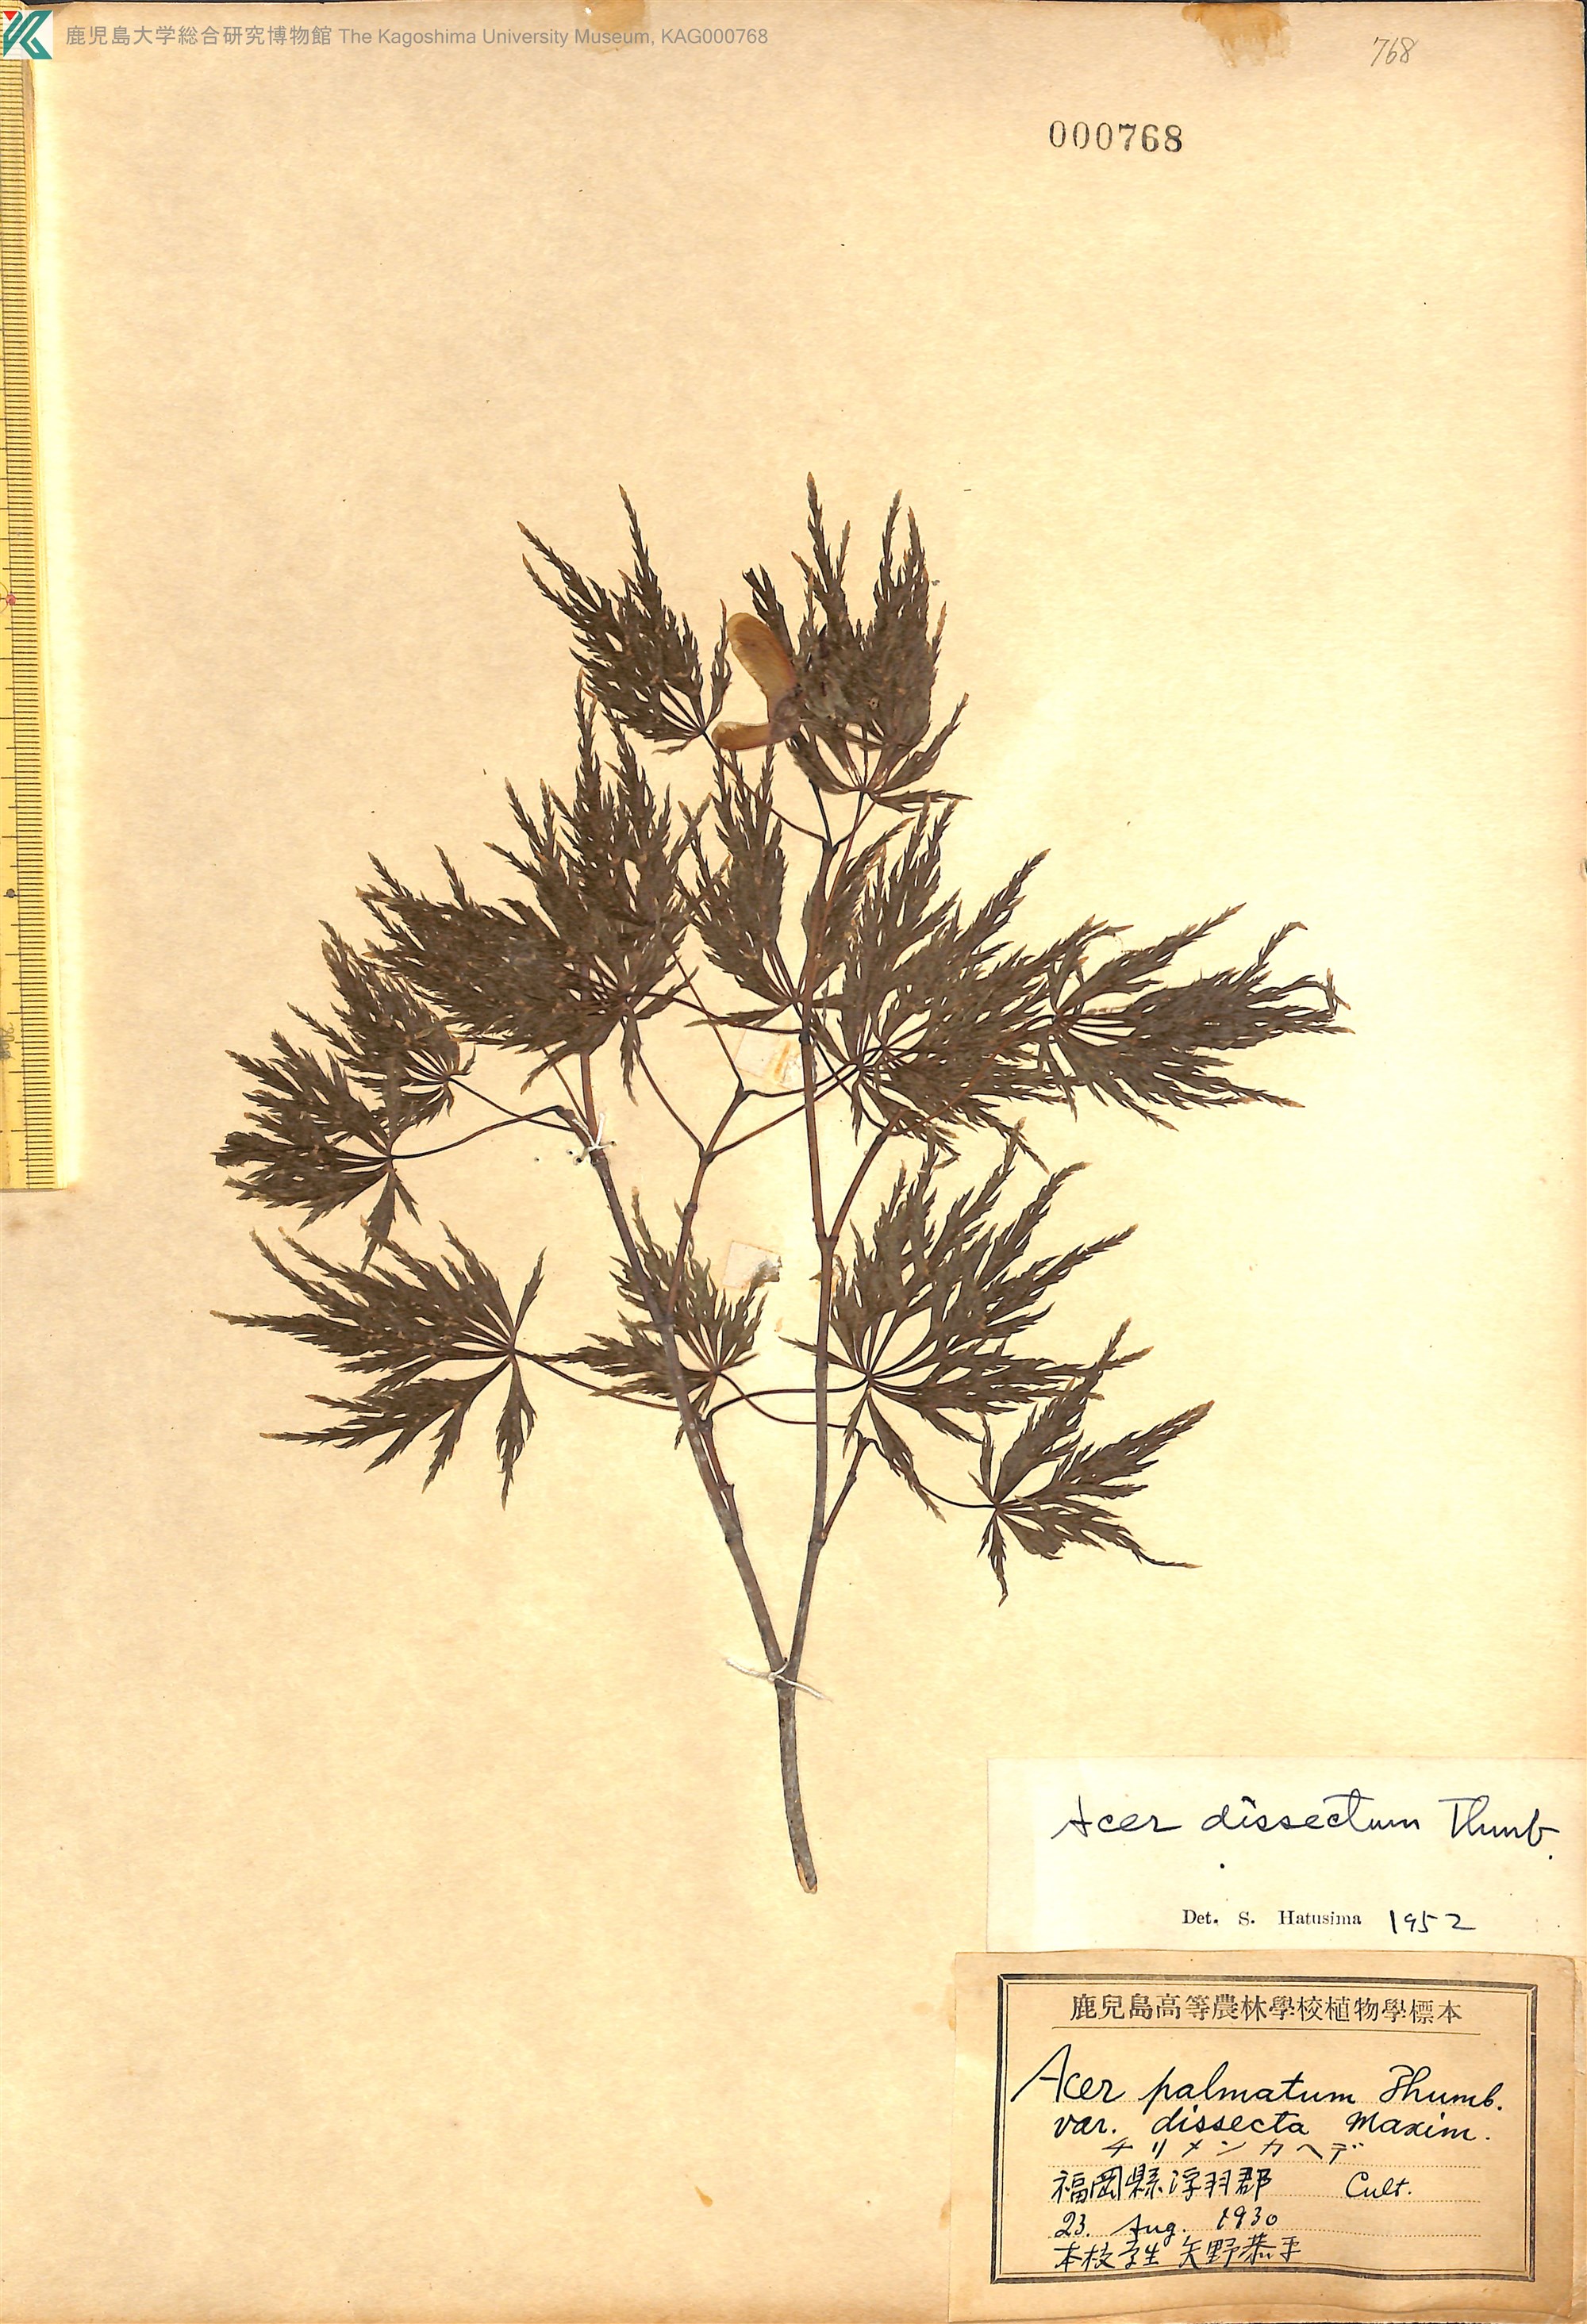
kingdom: Plantae
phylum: Tracheophyta
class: Magnoliopsida
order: Sapindales
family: Sapindaceae
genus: Acer
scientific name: Acer palmatum
